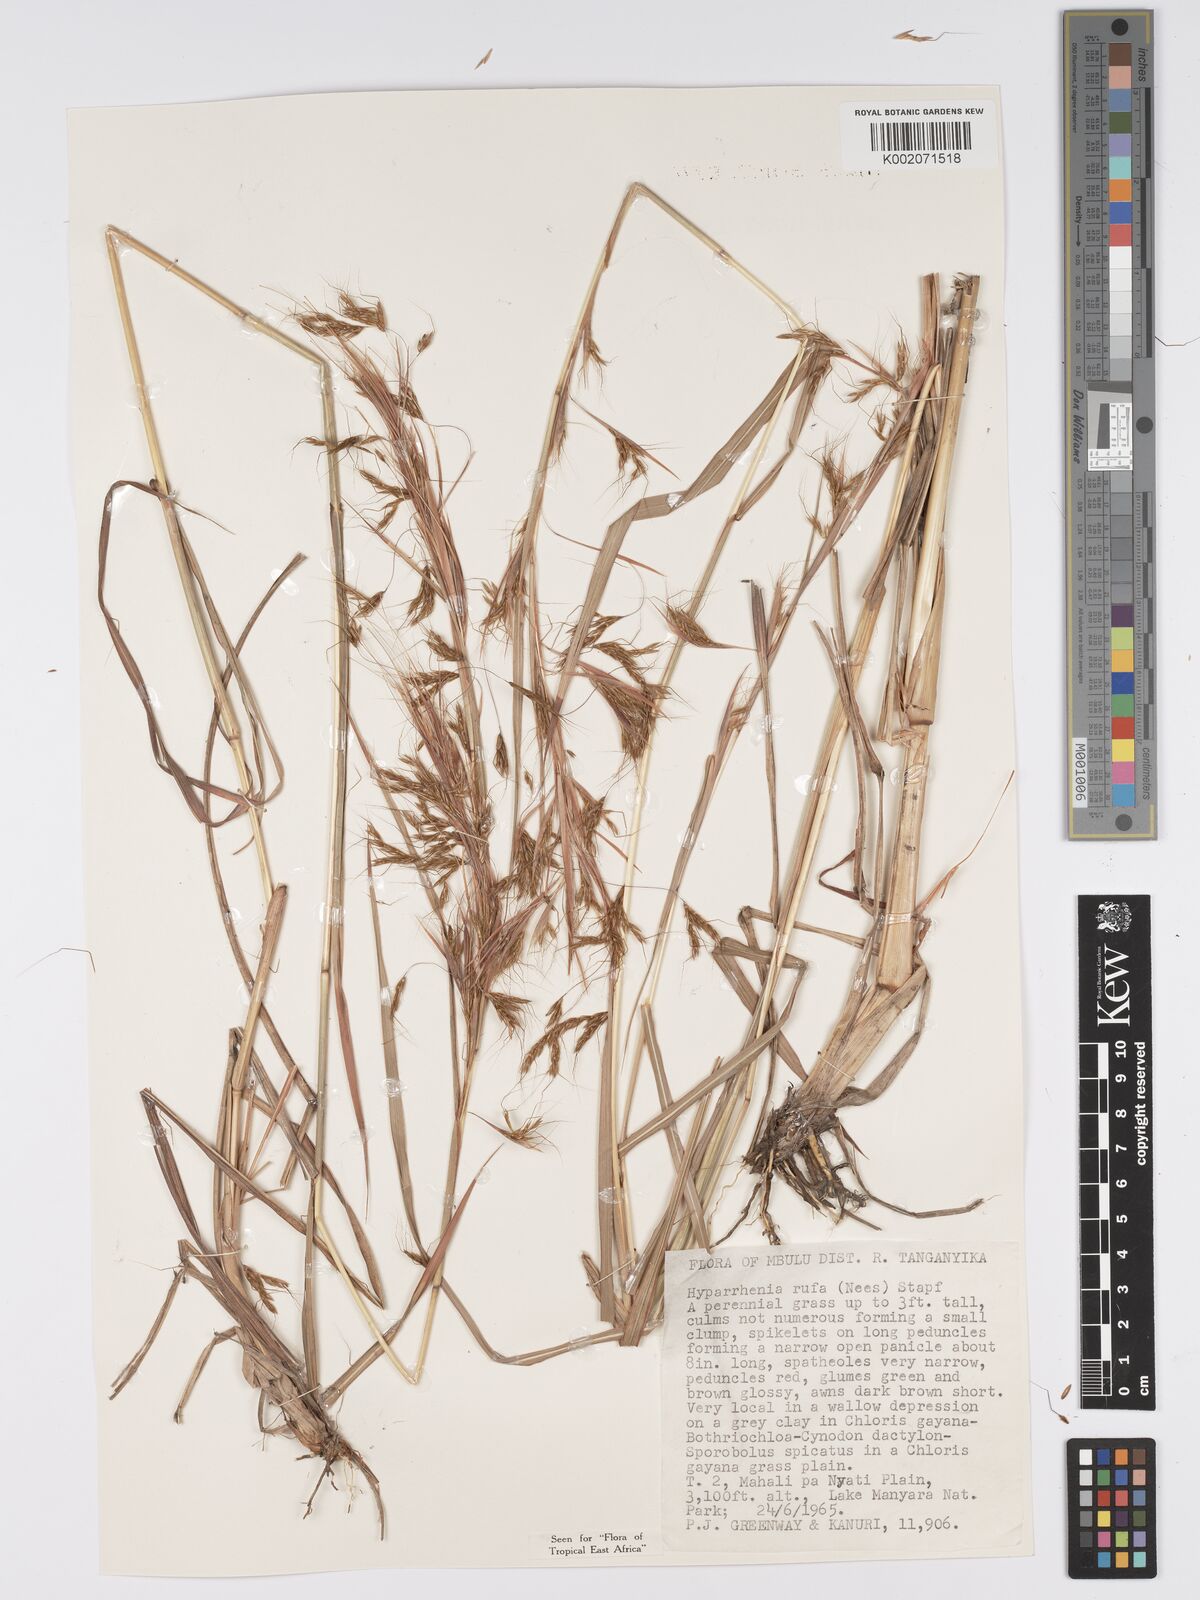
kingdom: Plantae
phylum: Tracheophyta
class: Liliopsida
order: Poales
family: Poaceae
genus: Hyparrhenia
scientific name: Hyparrhenia rufa
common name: Jaraguagrass
